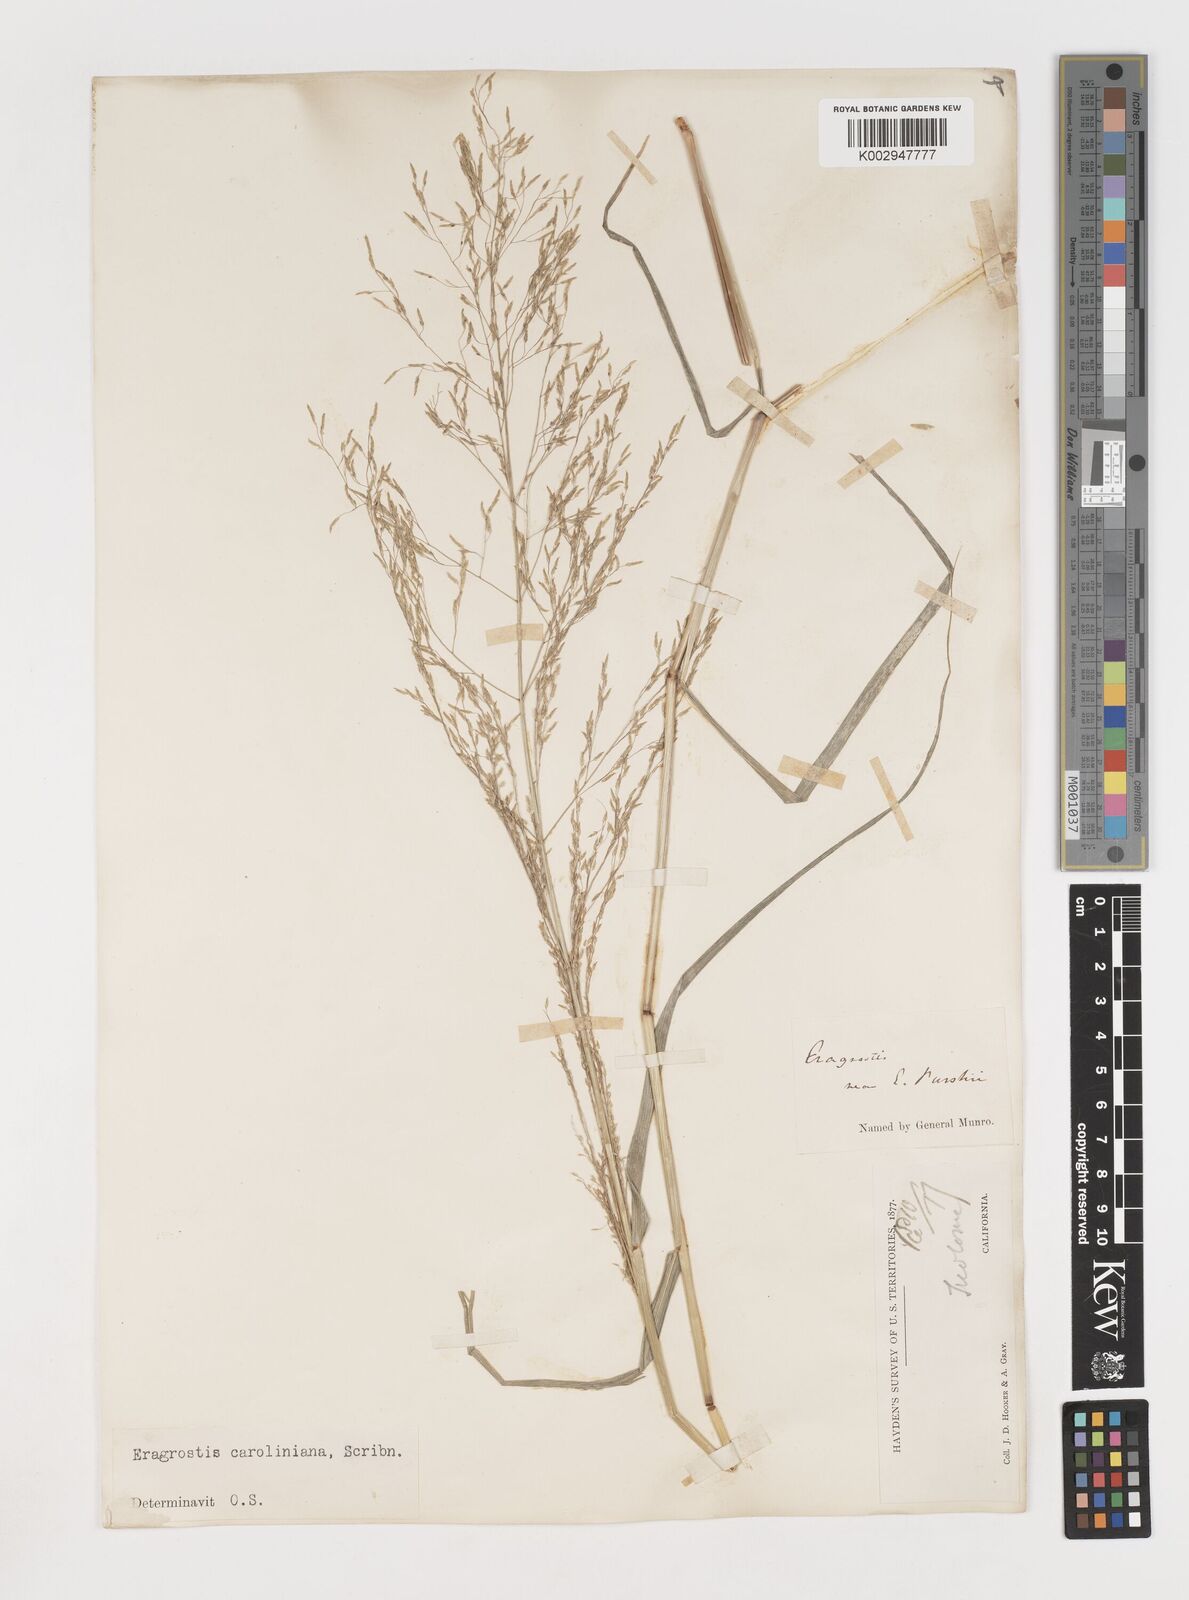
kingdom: Plantae
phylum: Tracheophyta
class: Liliopsida
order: Poales
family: Poaceae
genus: Eragrostis
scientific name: Eragrostis pectinacea
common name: Tufted lovegrass
